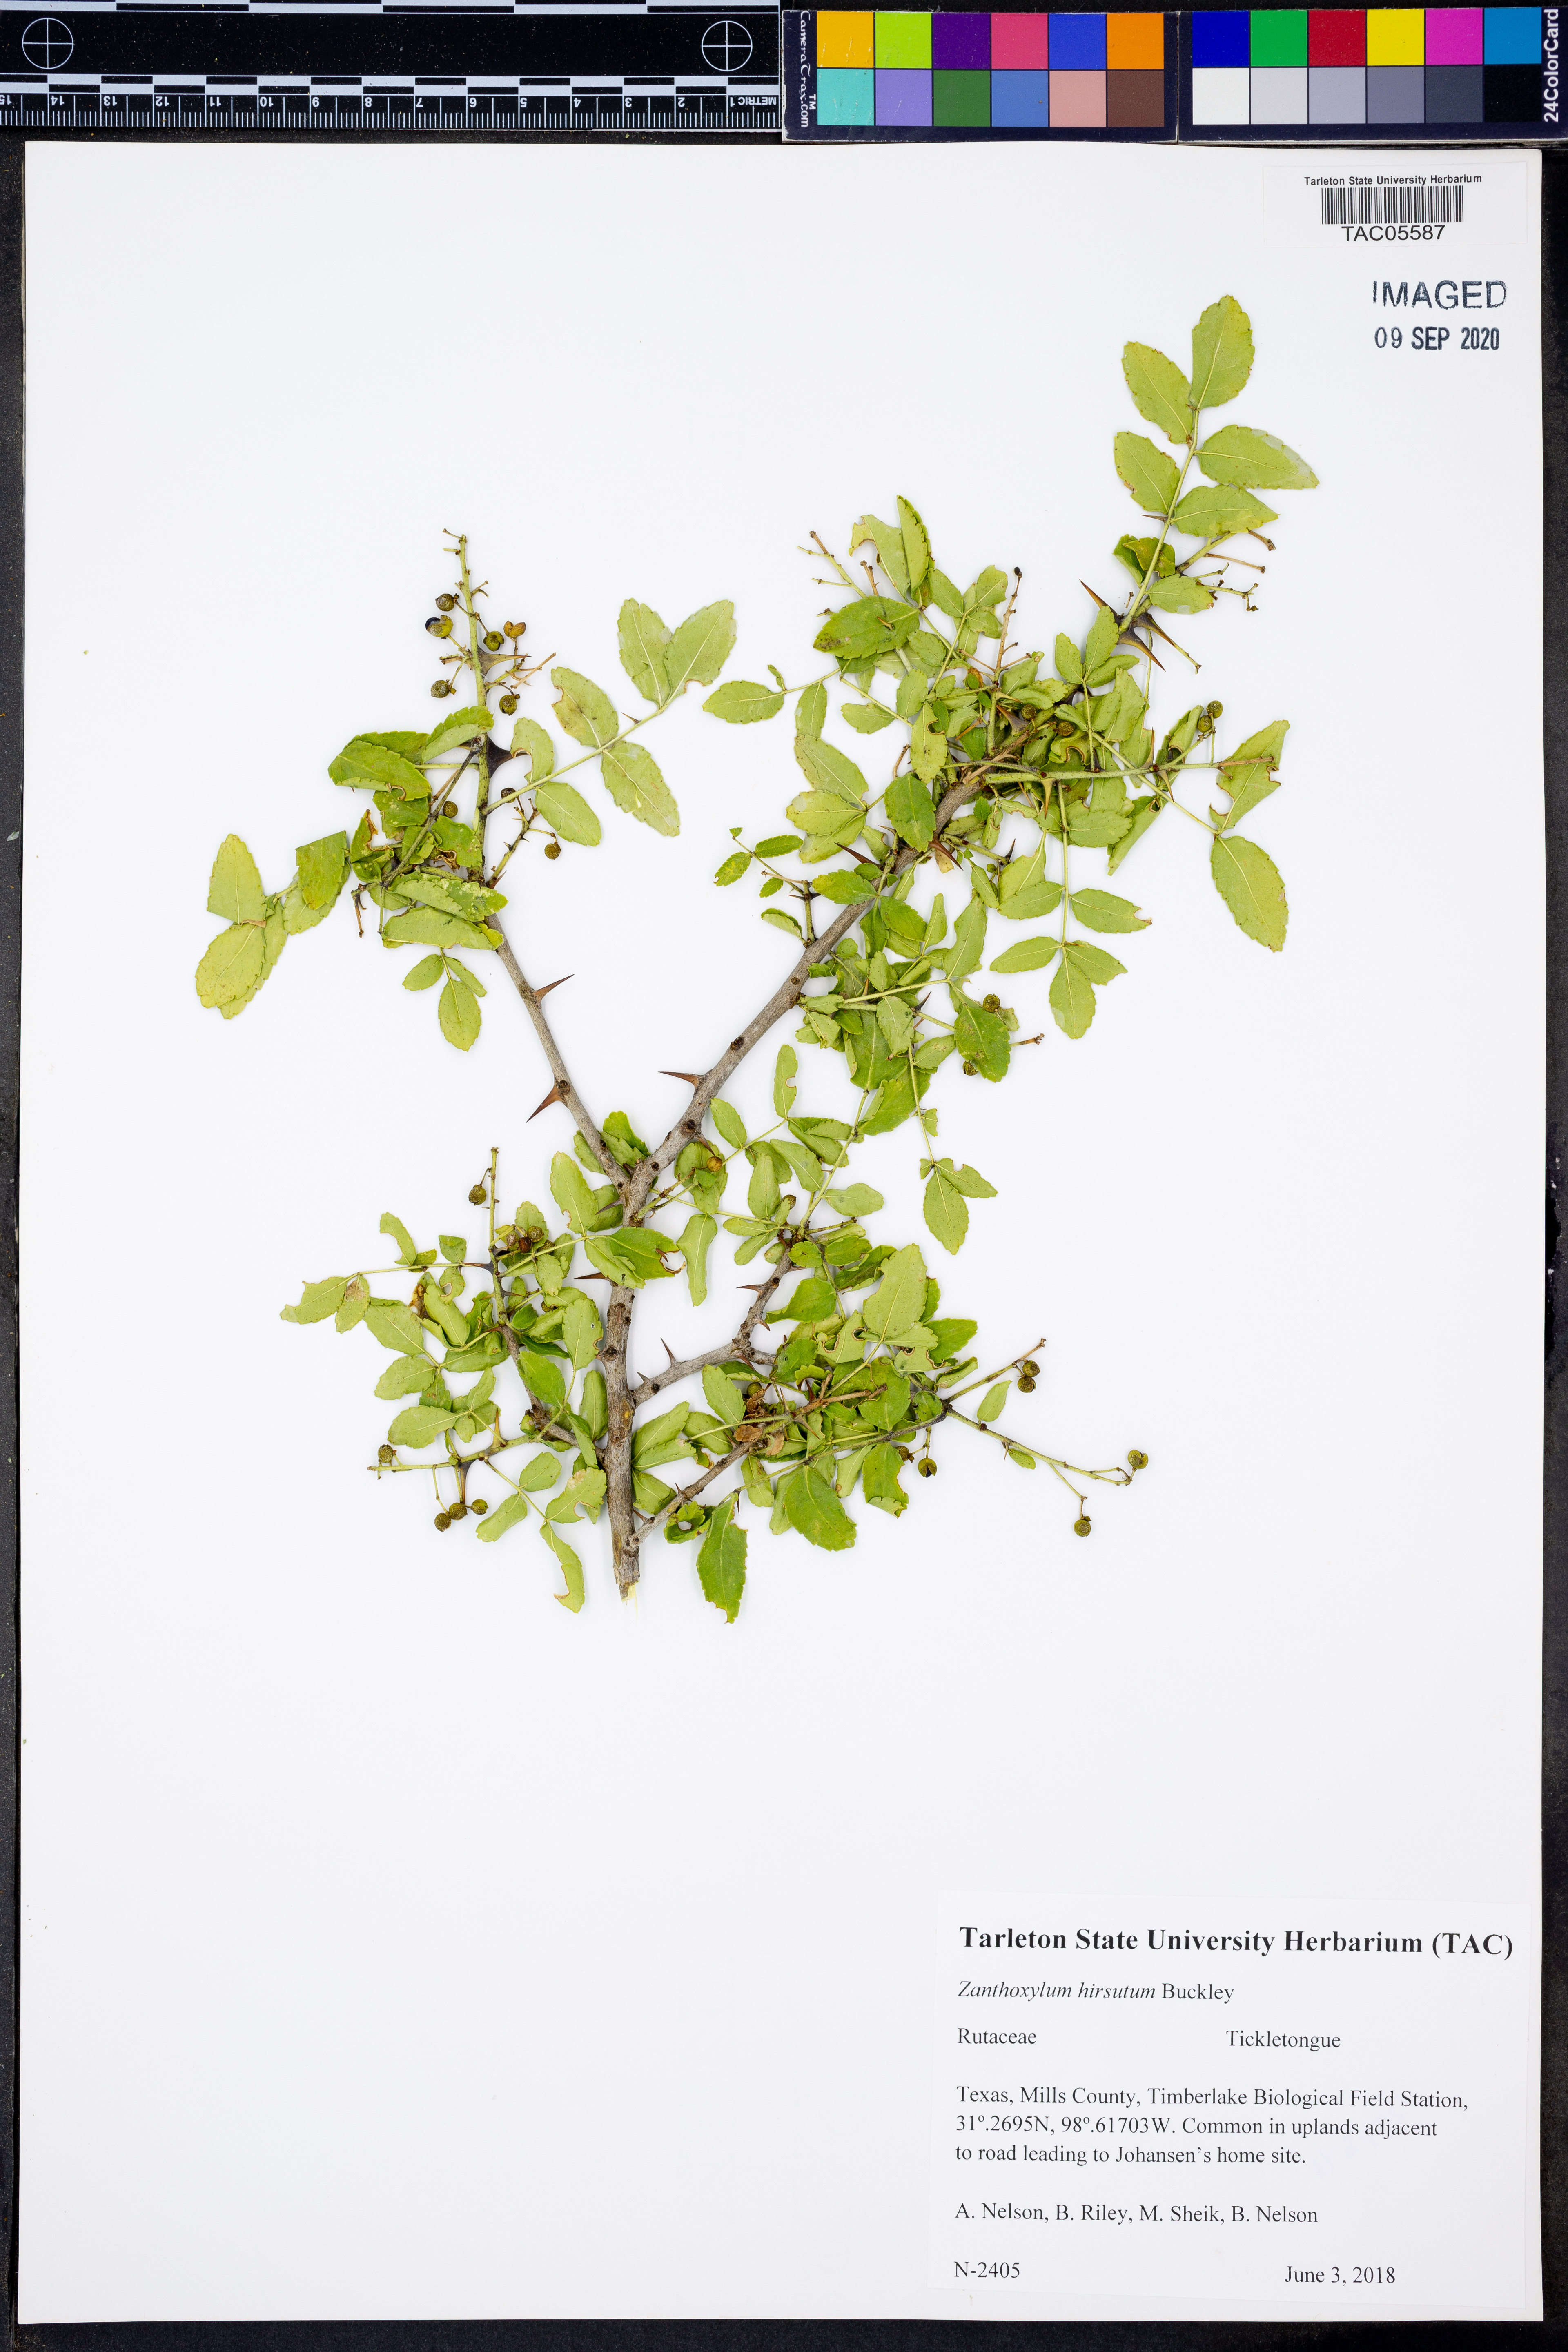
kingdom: Plantae
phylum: Tracheophyta
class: Magnoliopsida
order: Sapindales
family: Rutaceae
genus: Zanthoxylum
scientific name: Zanthoxylum clava-herculis
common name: Hercules'-club
